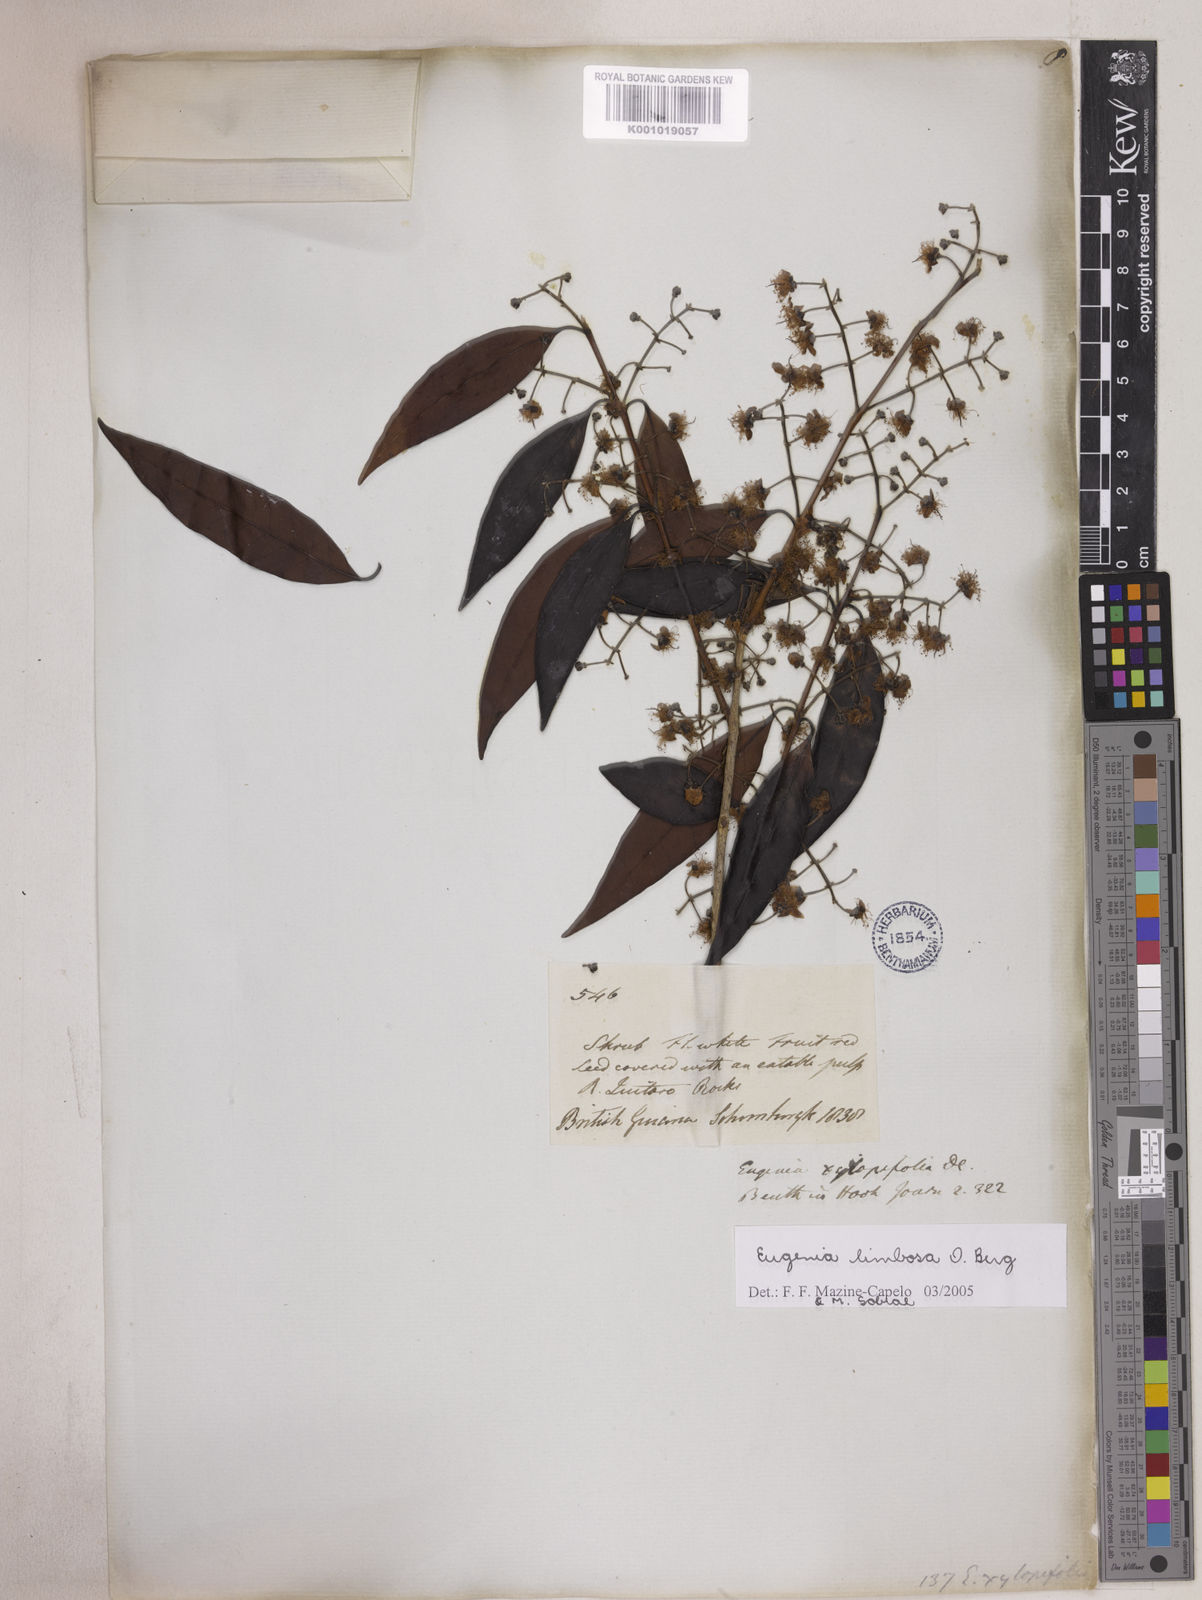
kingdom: Plantae
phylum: Tracheophyta
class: Magnoliopsida
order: Myrtales
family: Myrtaceae
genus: Eugenia
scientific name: Eugenia limbosa
